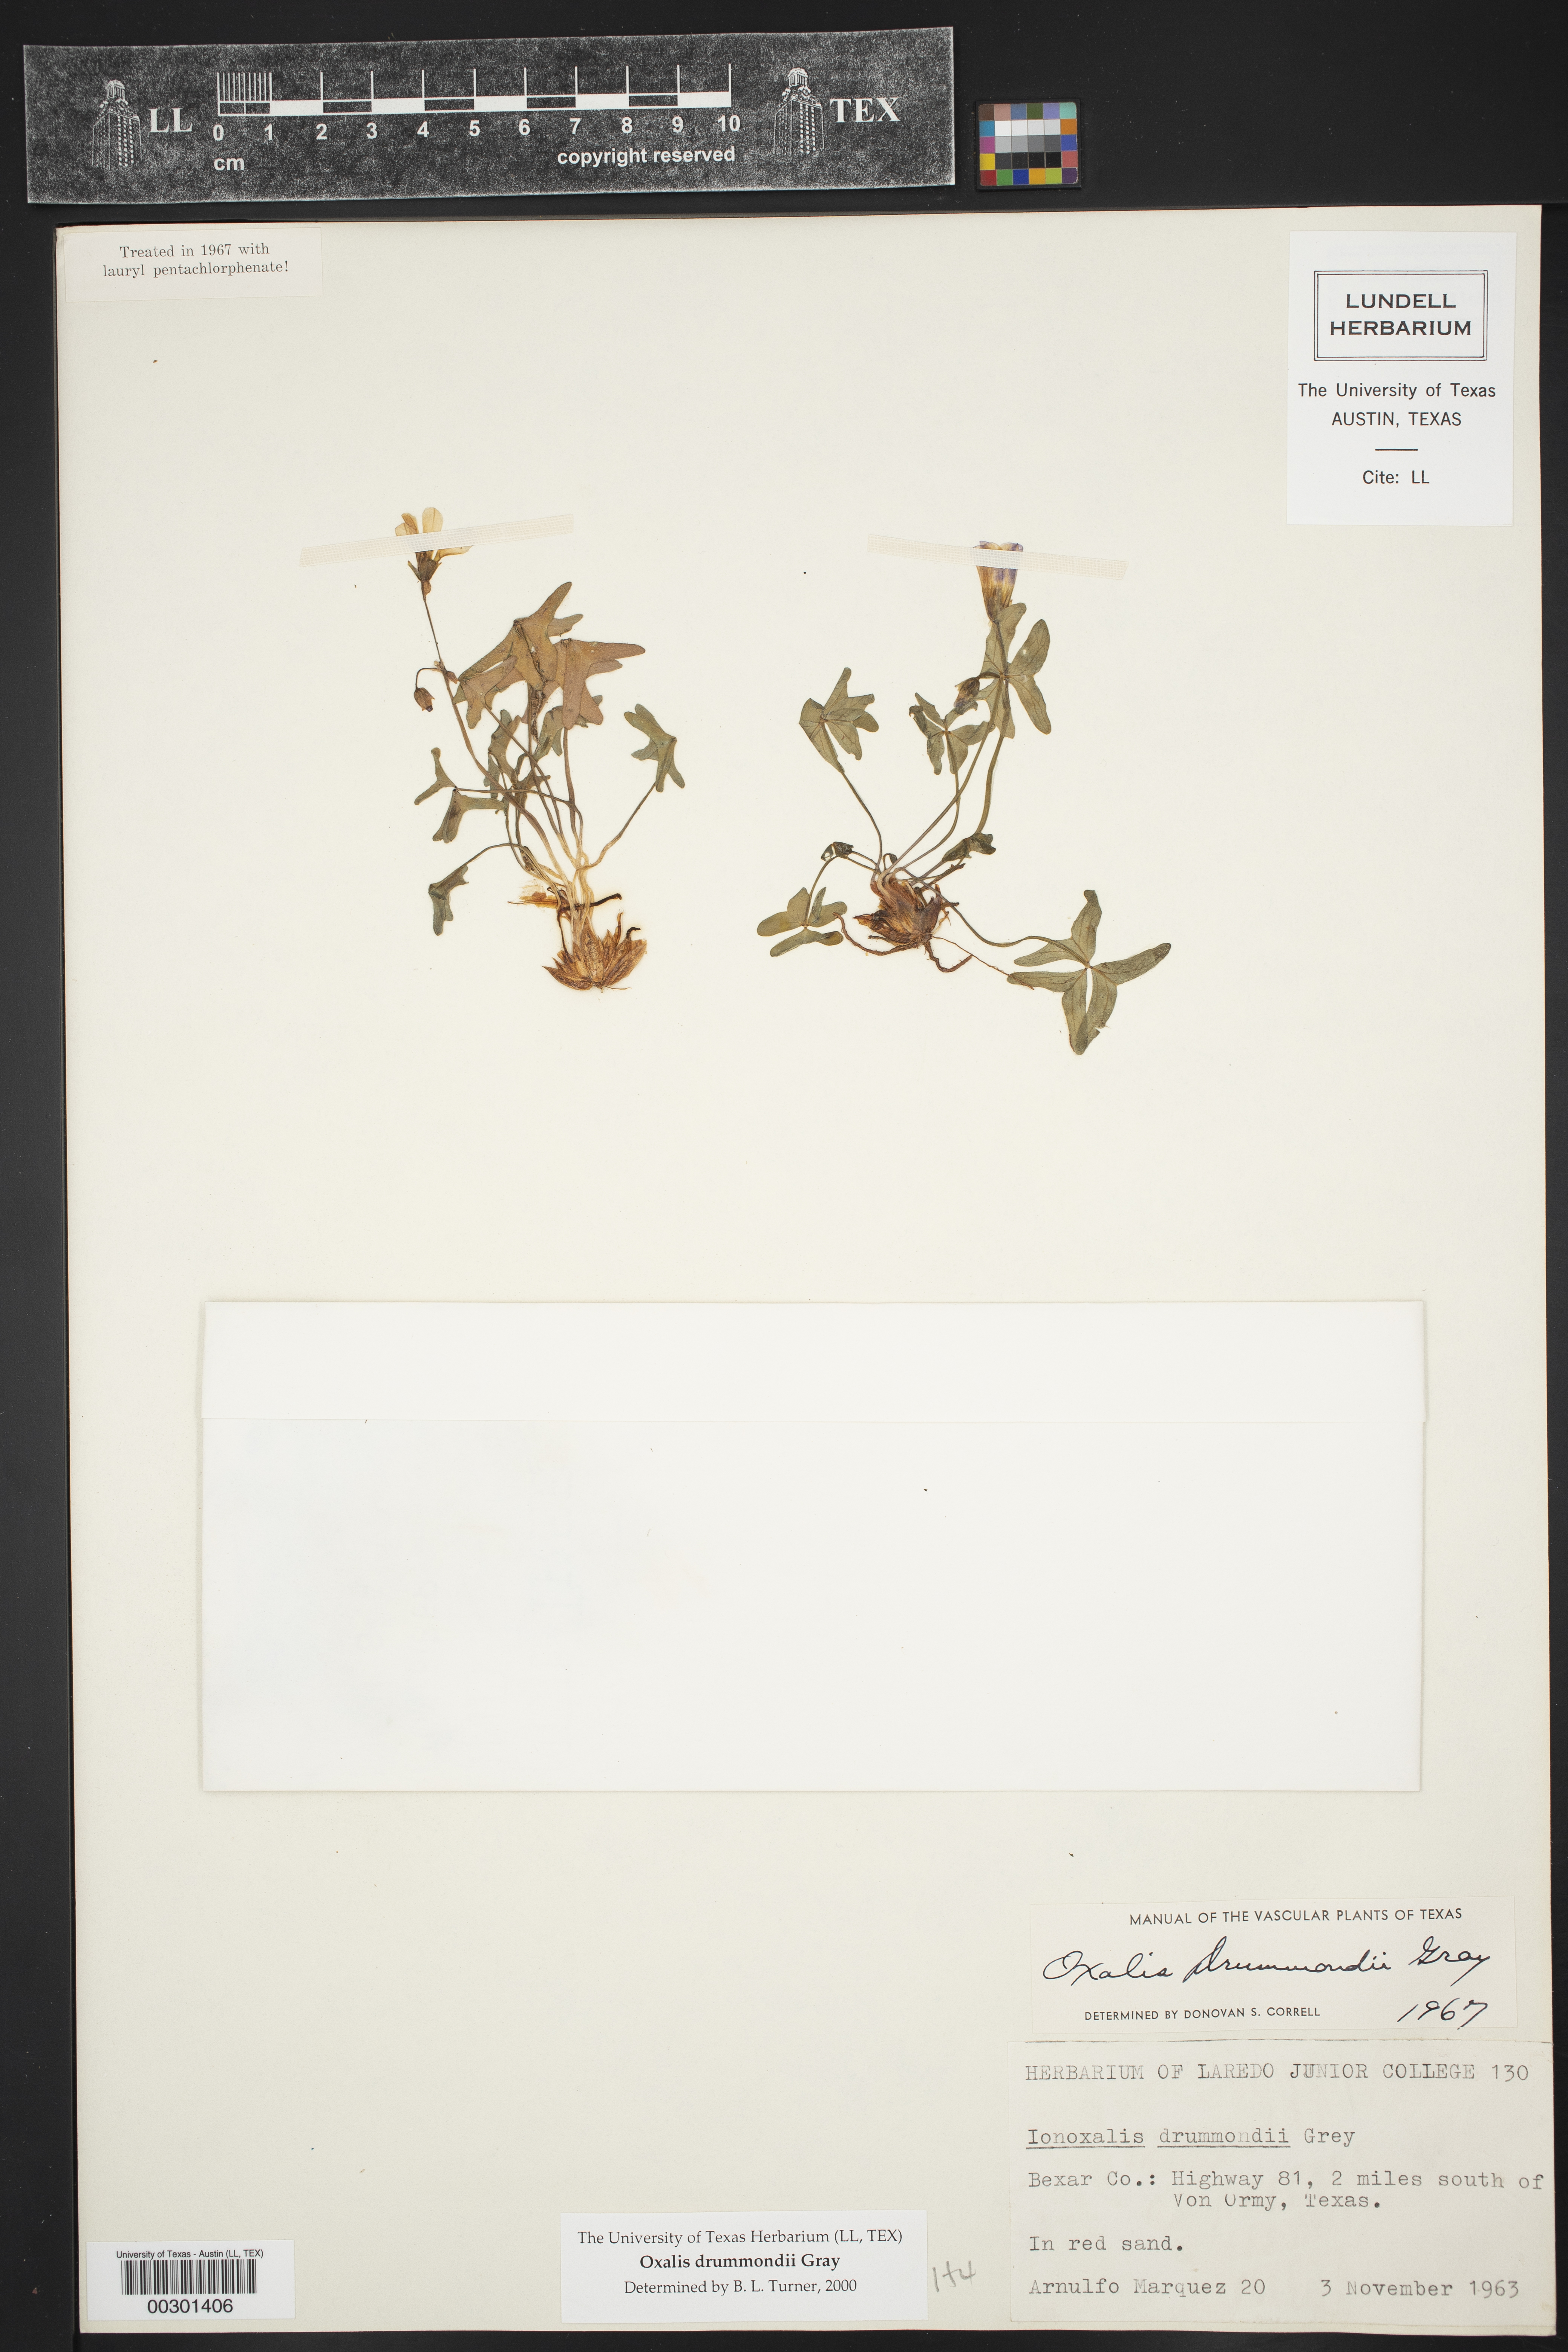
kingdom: Plantae
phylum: Tracheophyta
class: Magnoliopsida
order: Oxalidales
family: Oxalidaceae
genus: Oxalis
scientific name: Oxalis drummondii
